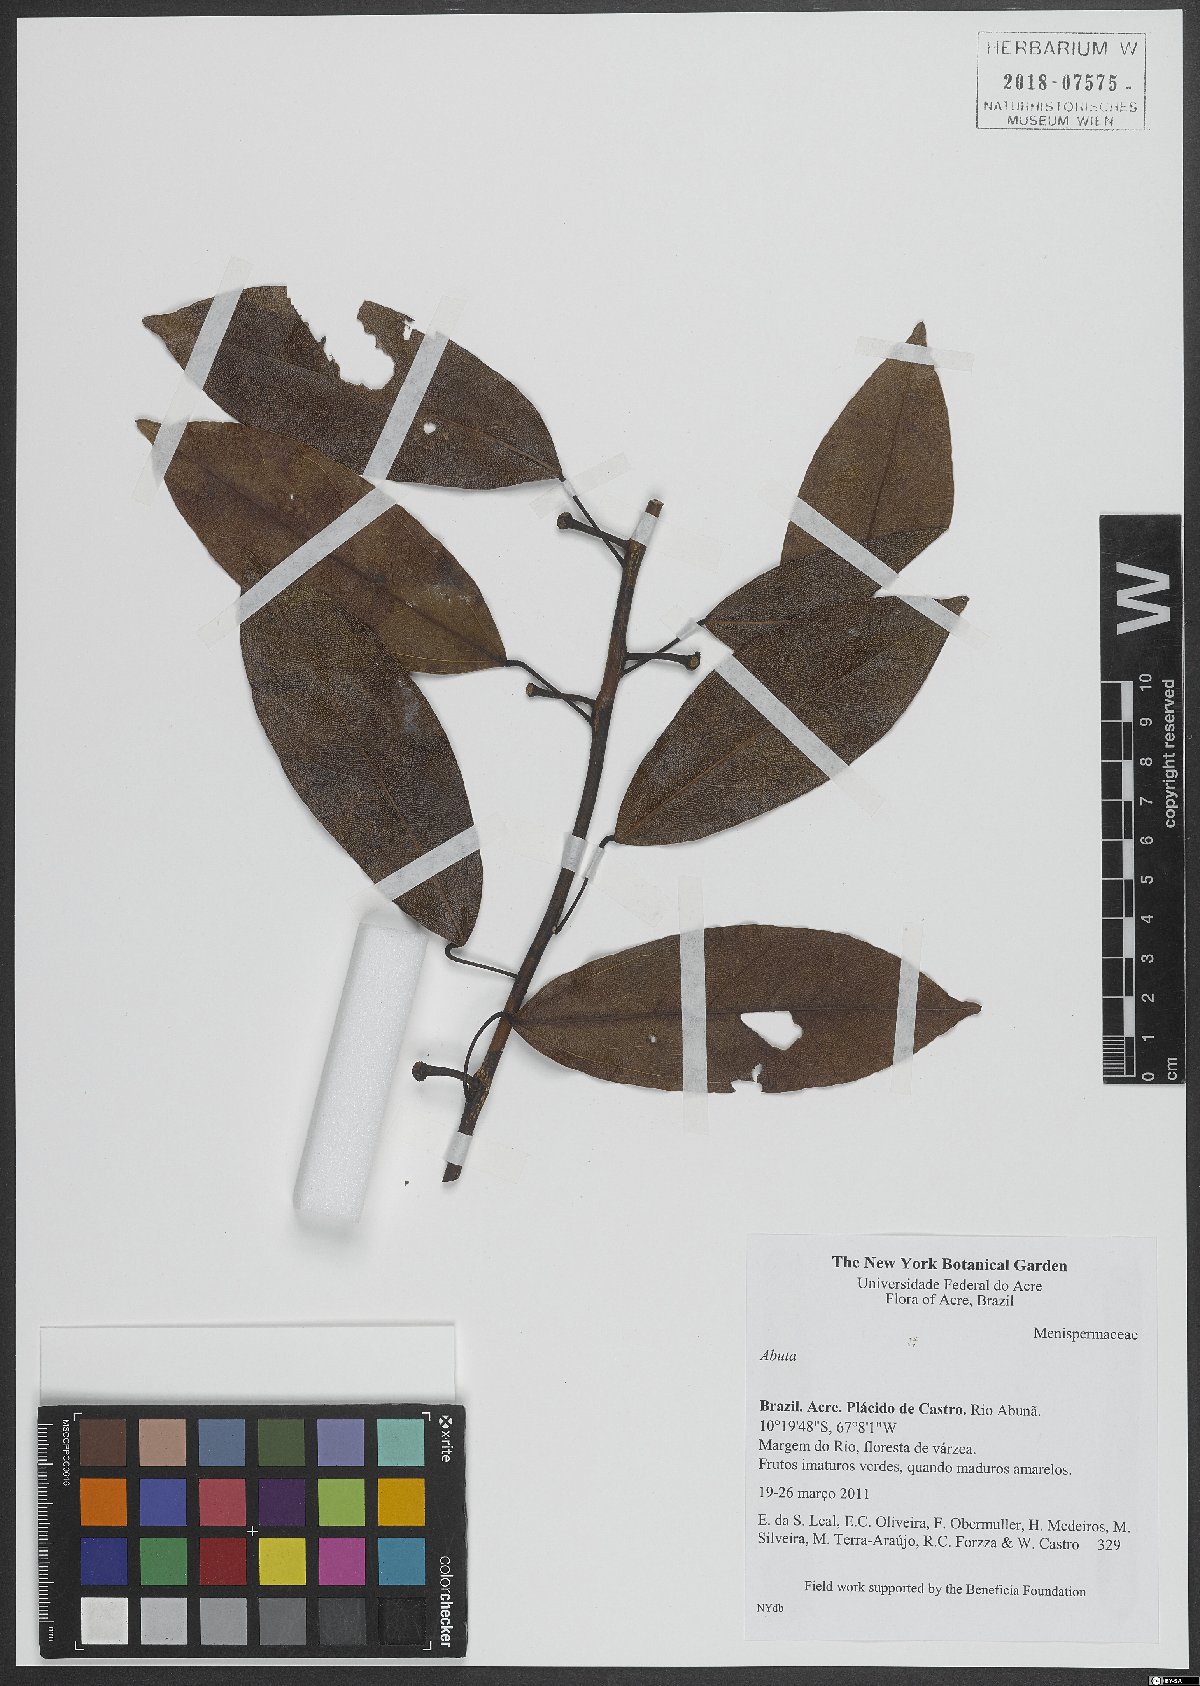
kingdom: Plantae
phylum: Tracheophyta
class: Magnoliopsida
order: Ranunculales
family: Menispermaceae
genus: Abuta
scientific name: Abuta
